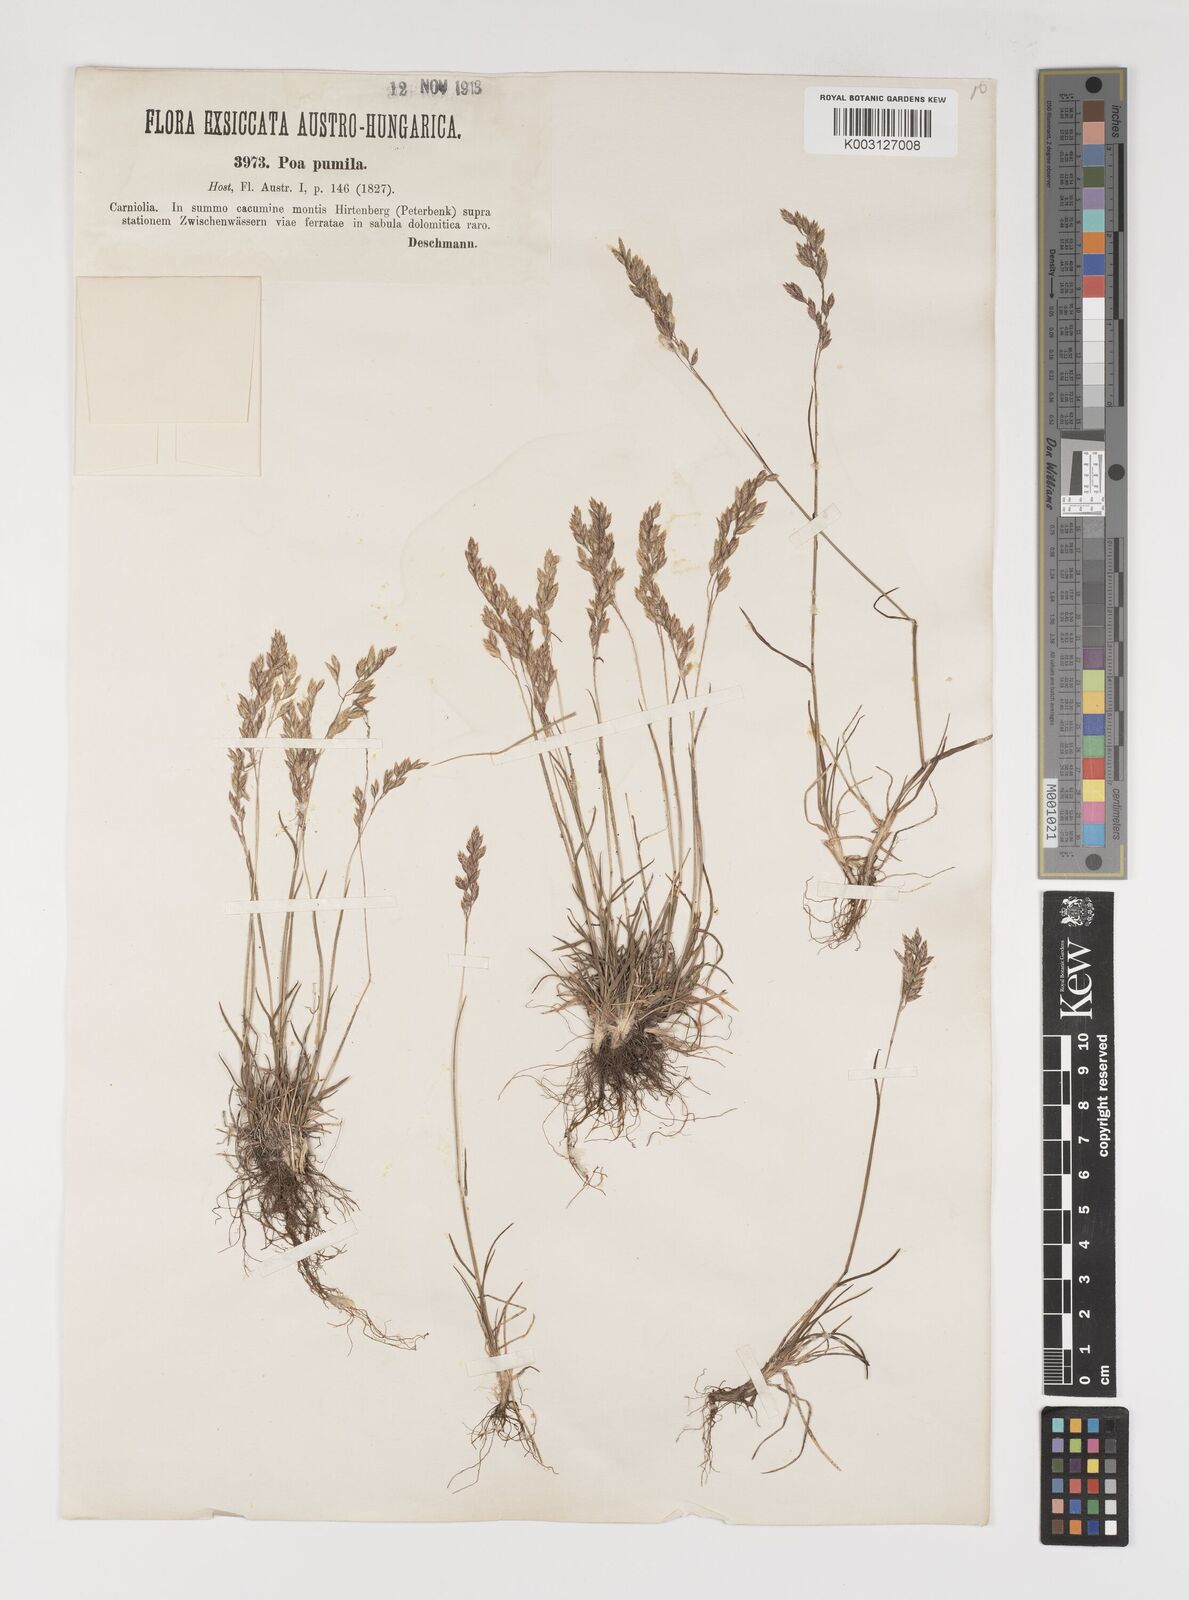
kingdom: Plantae
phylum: Tracheophyta
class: Liliopsida
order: Poales
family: Poaceae
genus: Poa
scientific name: Poa pumila
